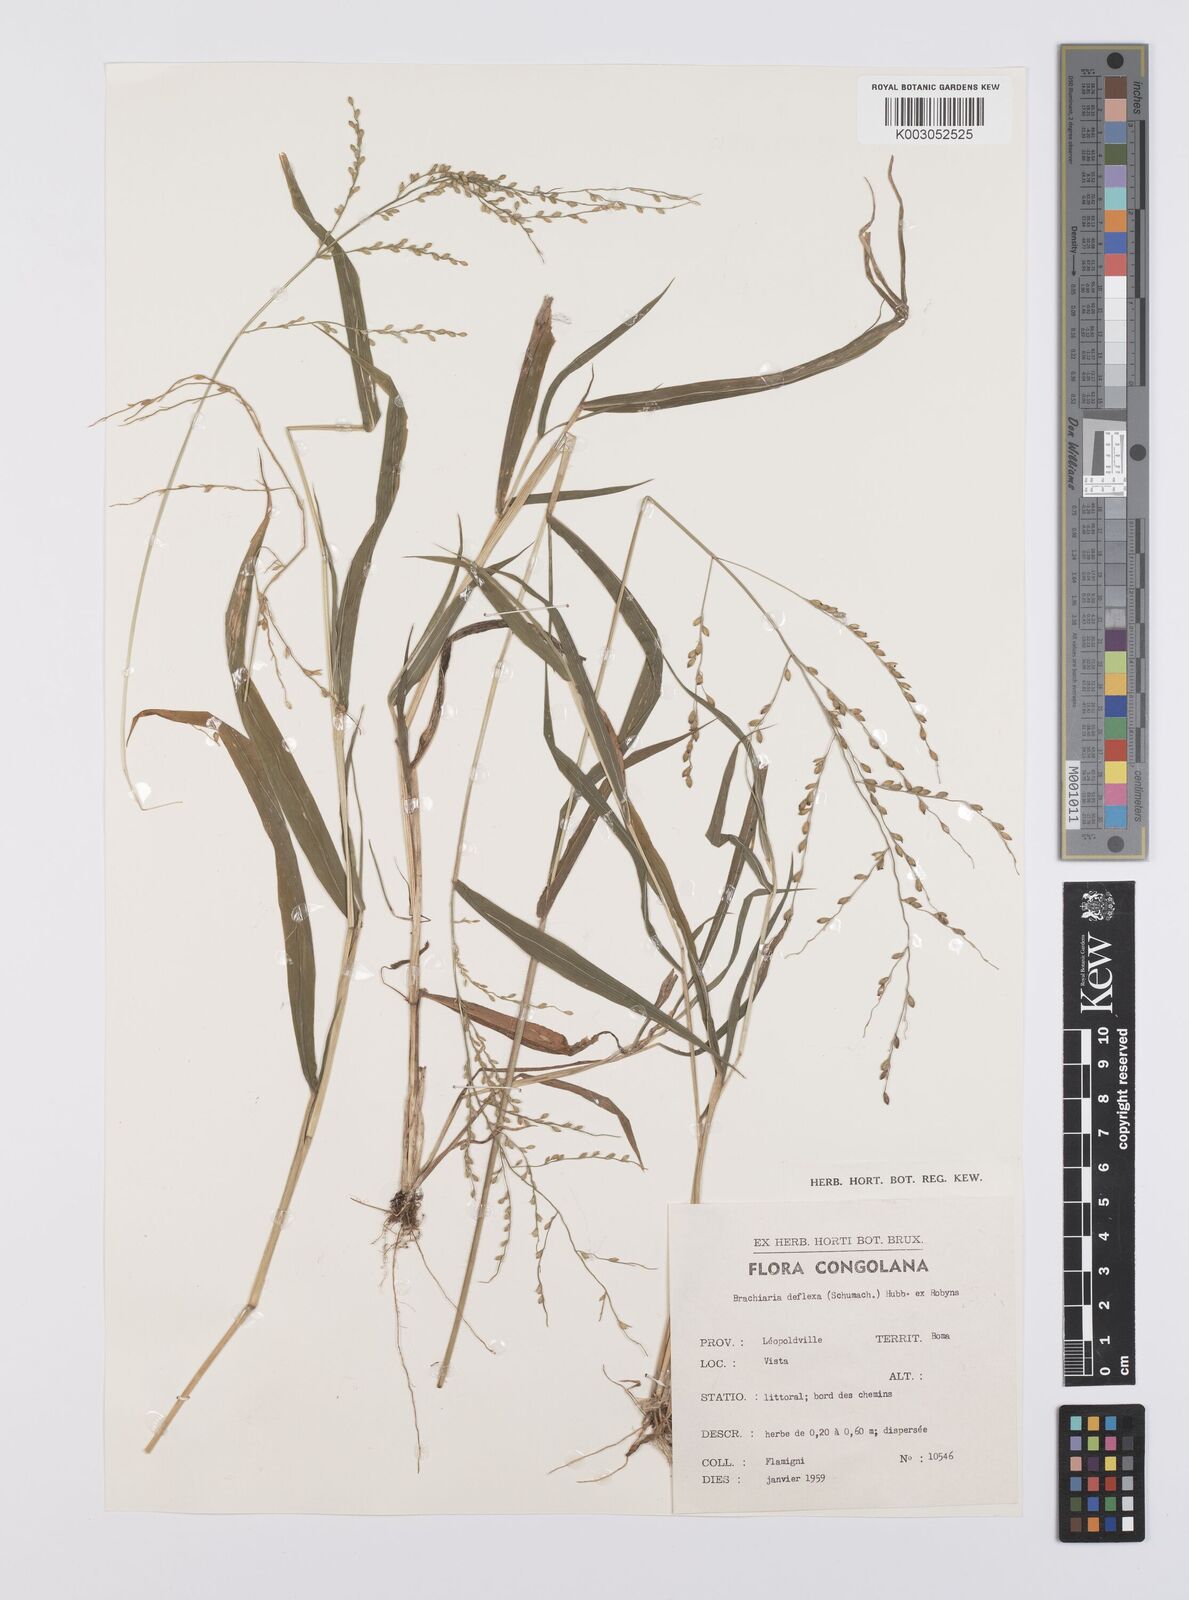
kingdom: Plantae
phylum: Tracheophyta
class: Liliopsida
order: Poales
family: Poaceae
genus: Urochloa
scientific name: Urochloa deflexa
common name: Guinea millet
